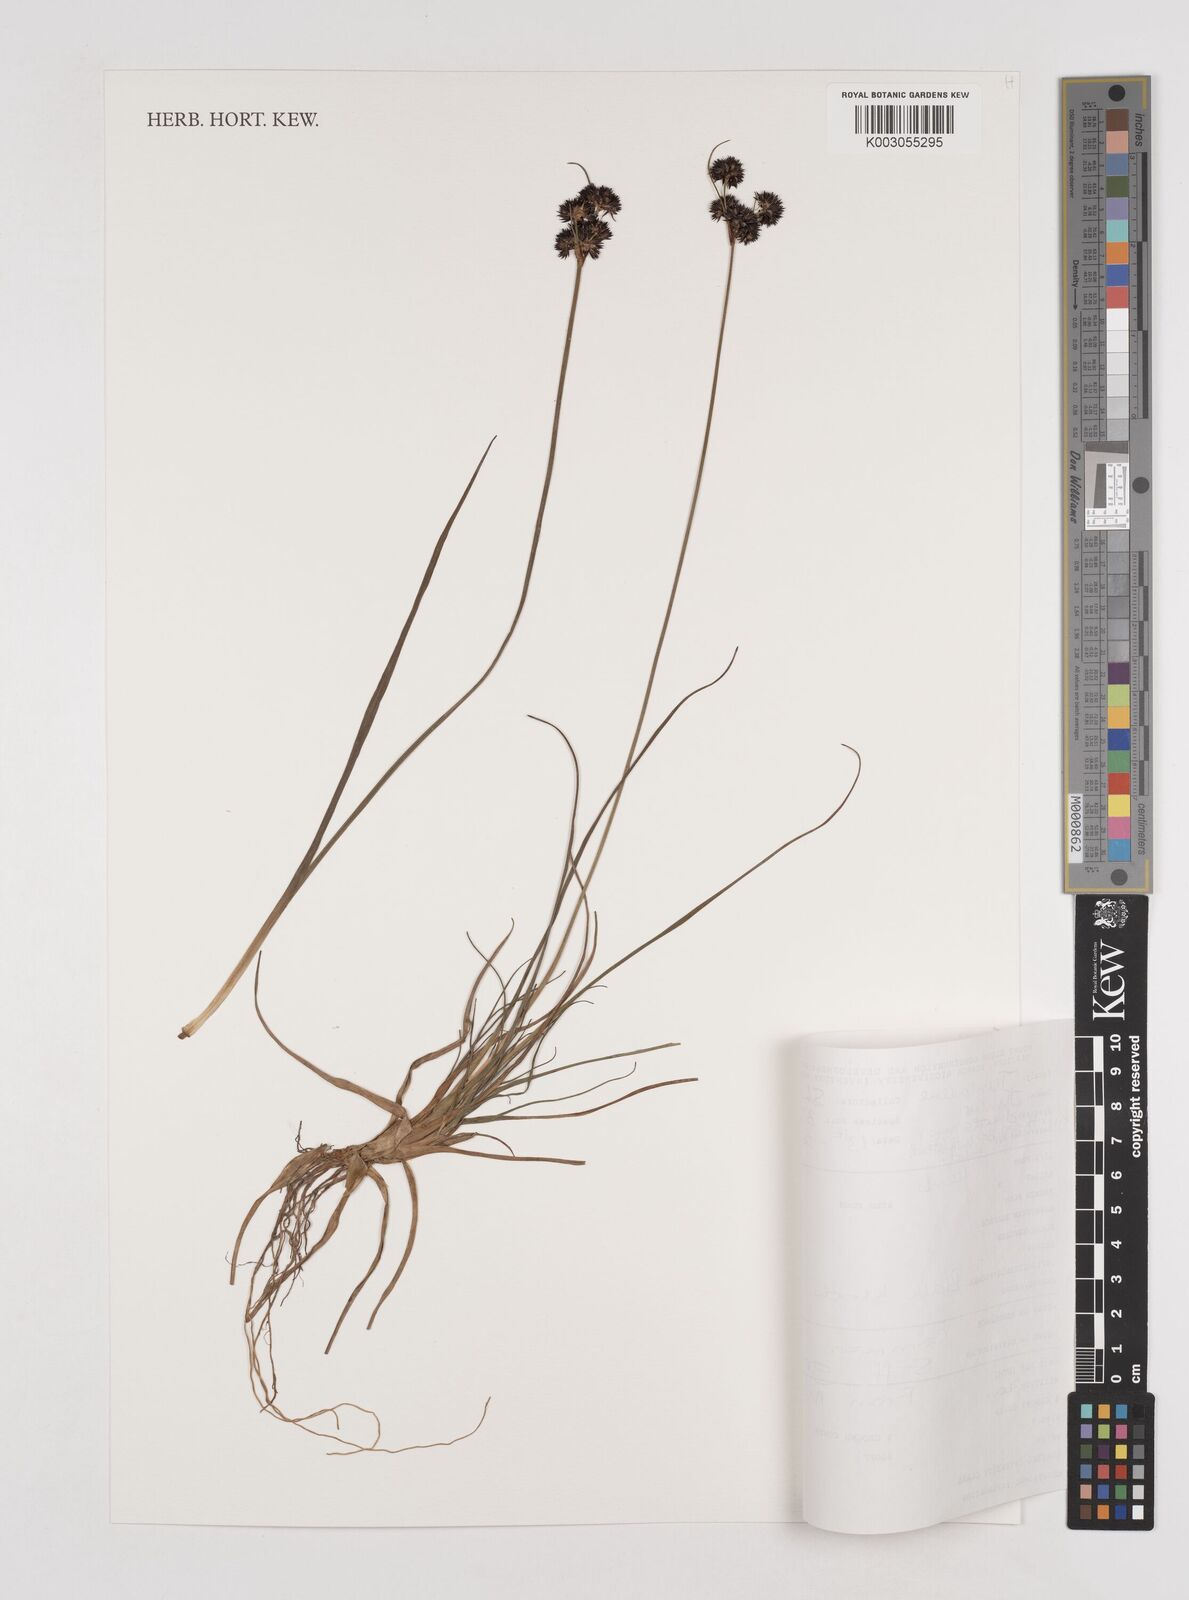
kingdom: Plantae
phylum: Tracheophyta
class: Liliopsida
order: Poales
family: Juncaceae
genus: Juncus
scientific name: Juncus dregeanus
